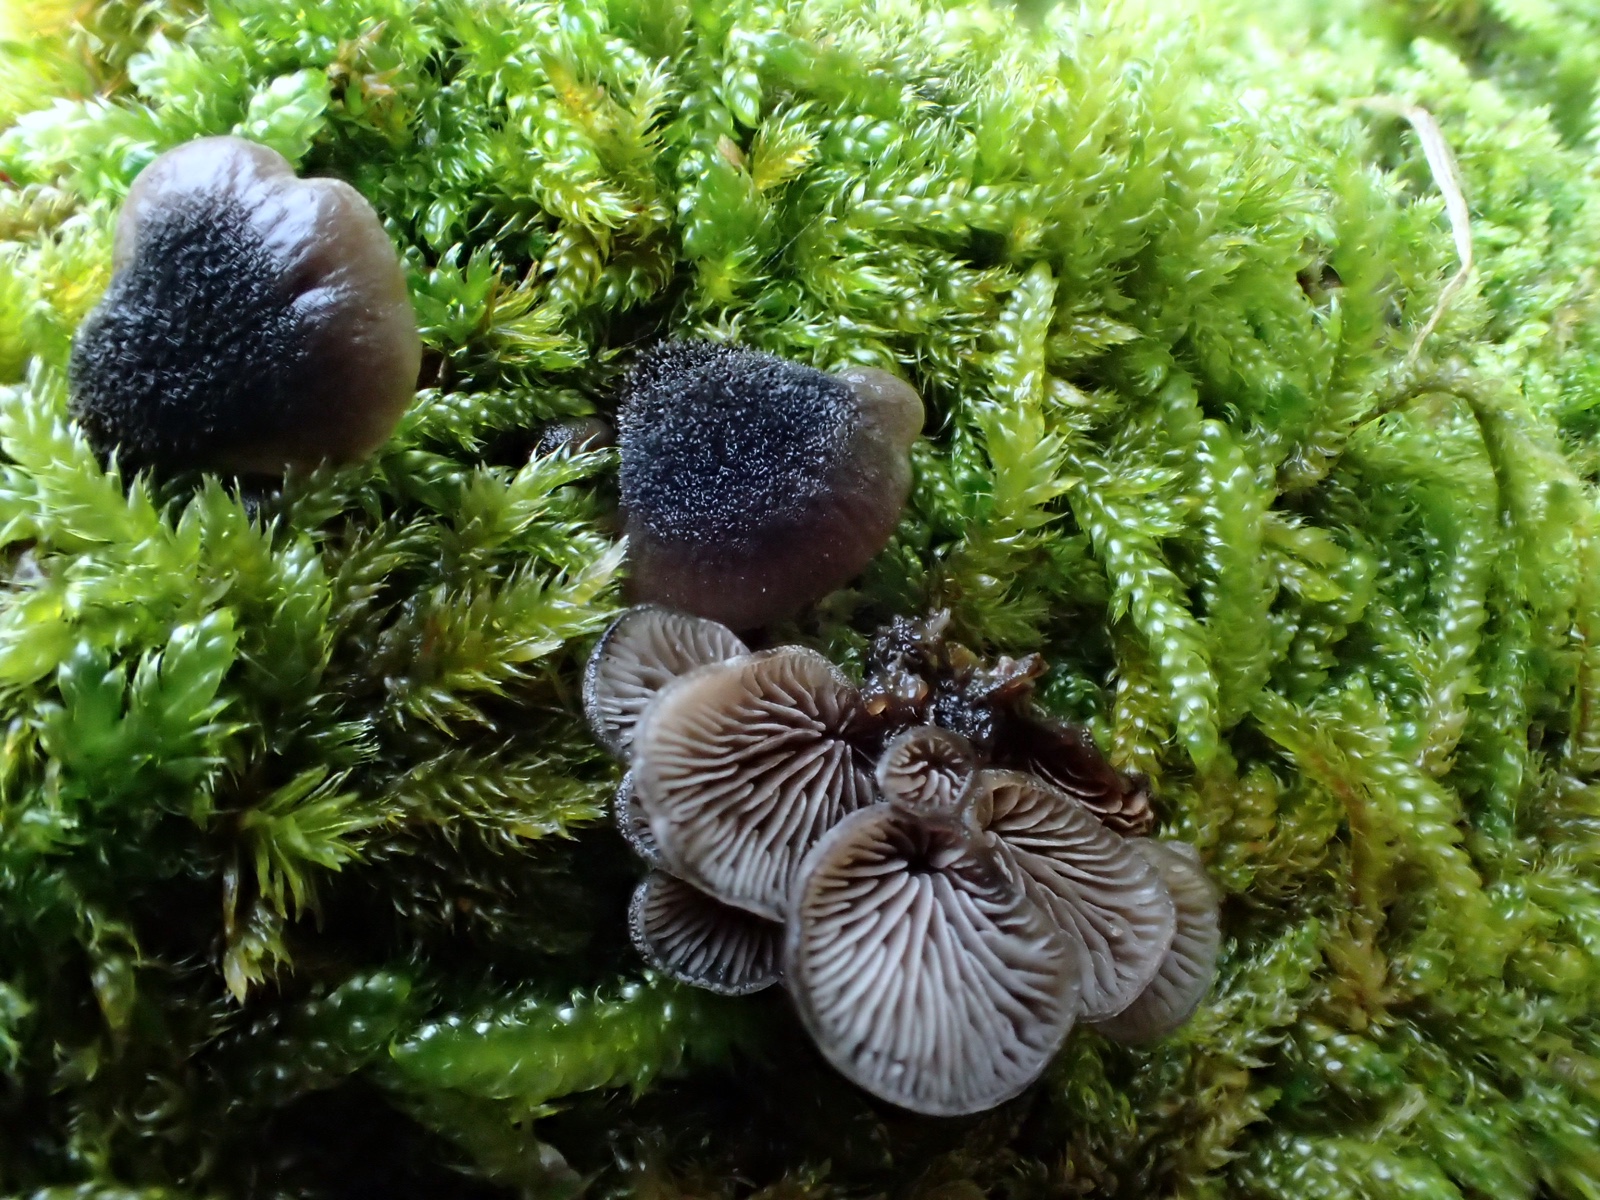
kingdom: Fungi
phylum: Basidiomycota
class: Agaricomycetes
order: Agaricales
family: Pleurotaceae
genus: Resupinatus
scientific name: Resupinatus trichotis
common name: mørkfiltet barkhat
